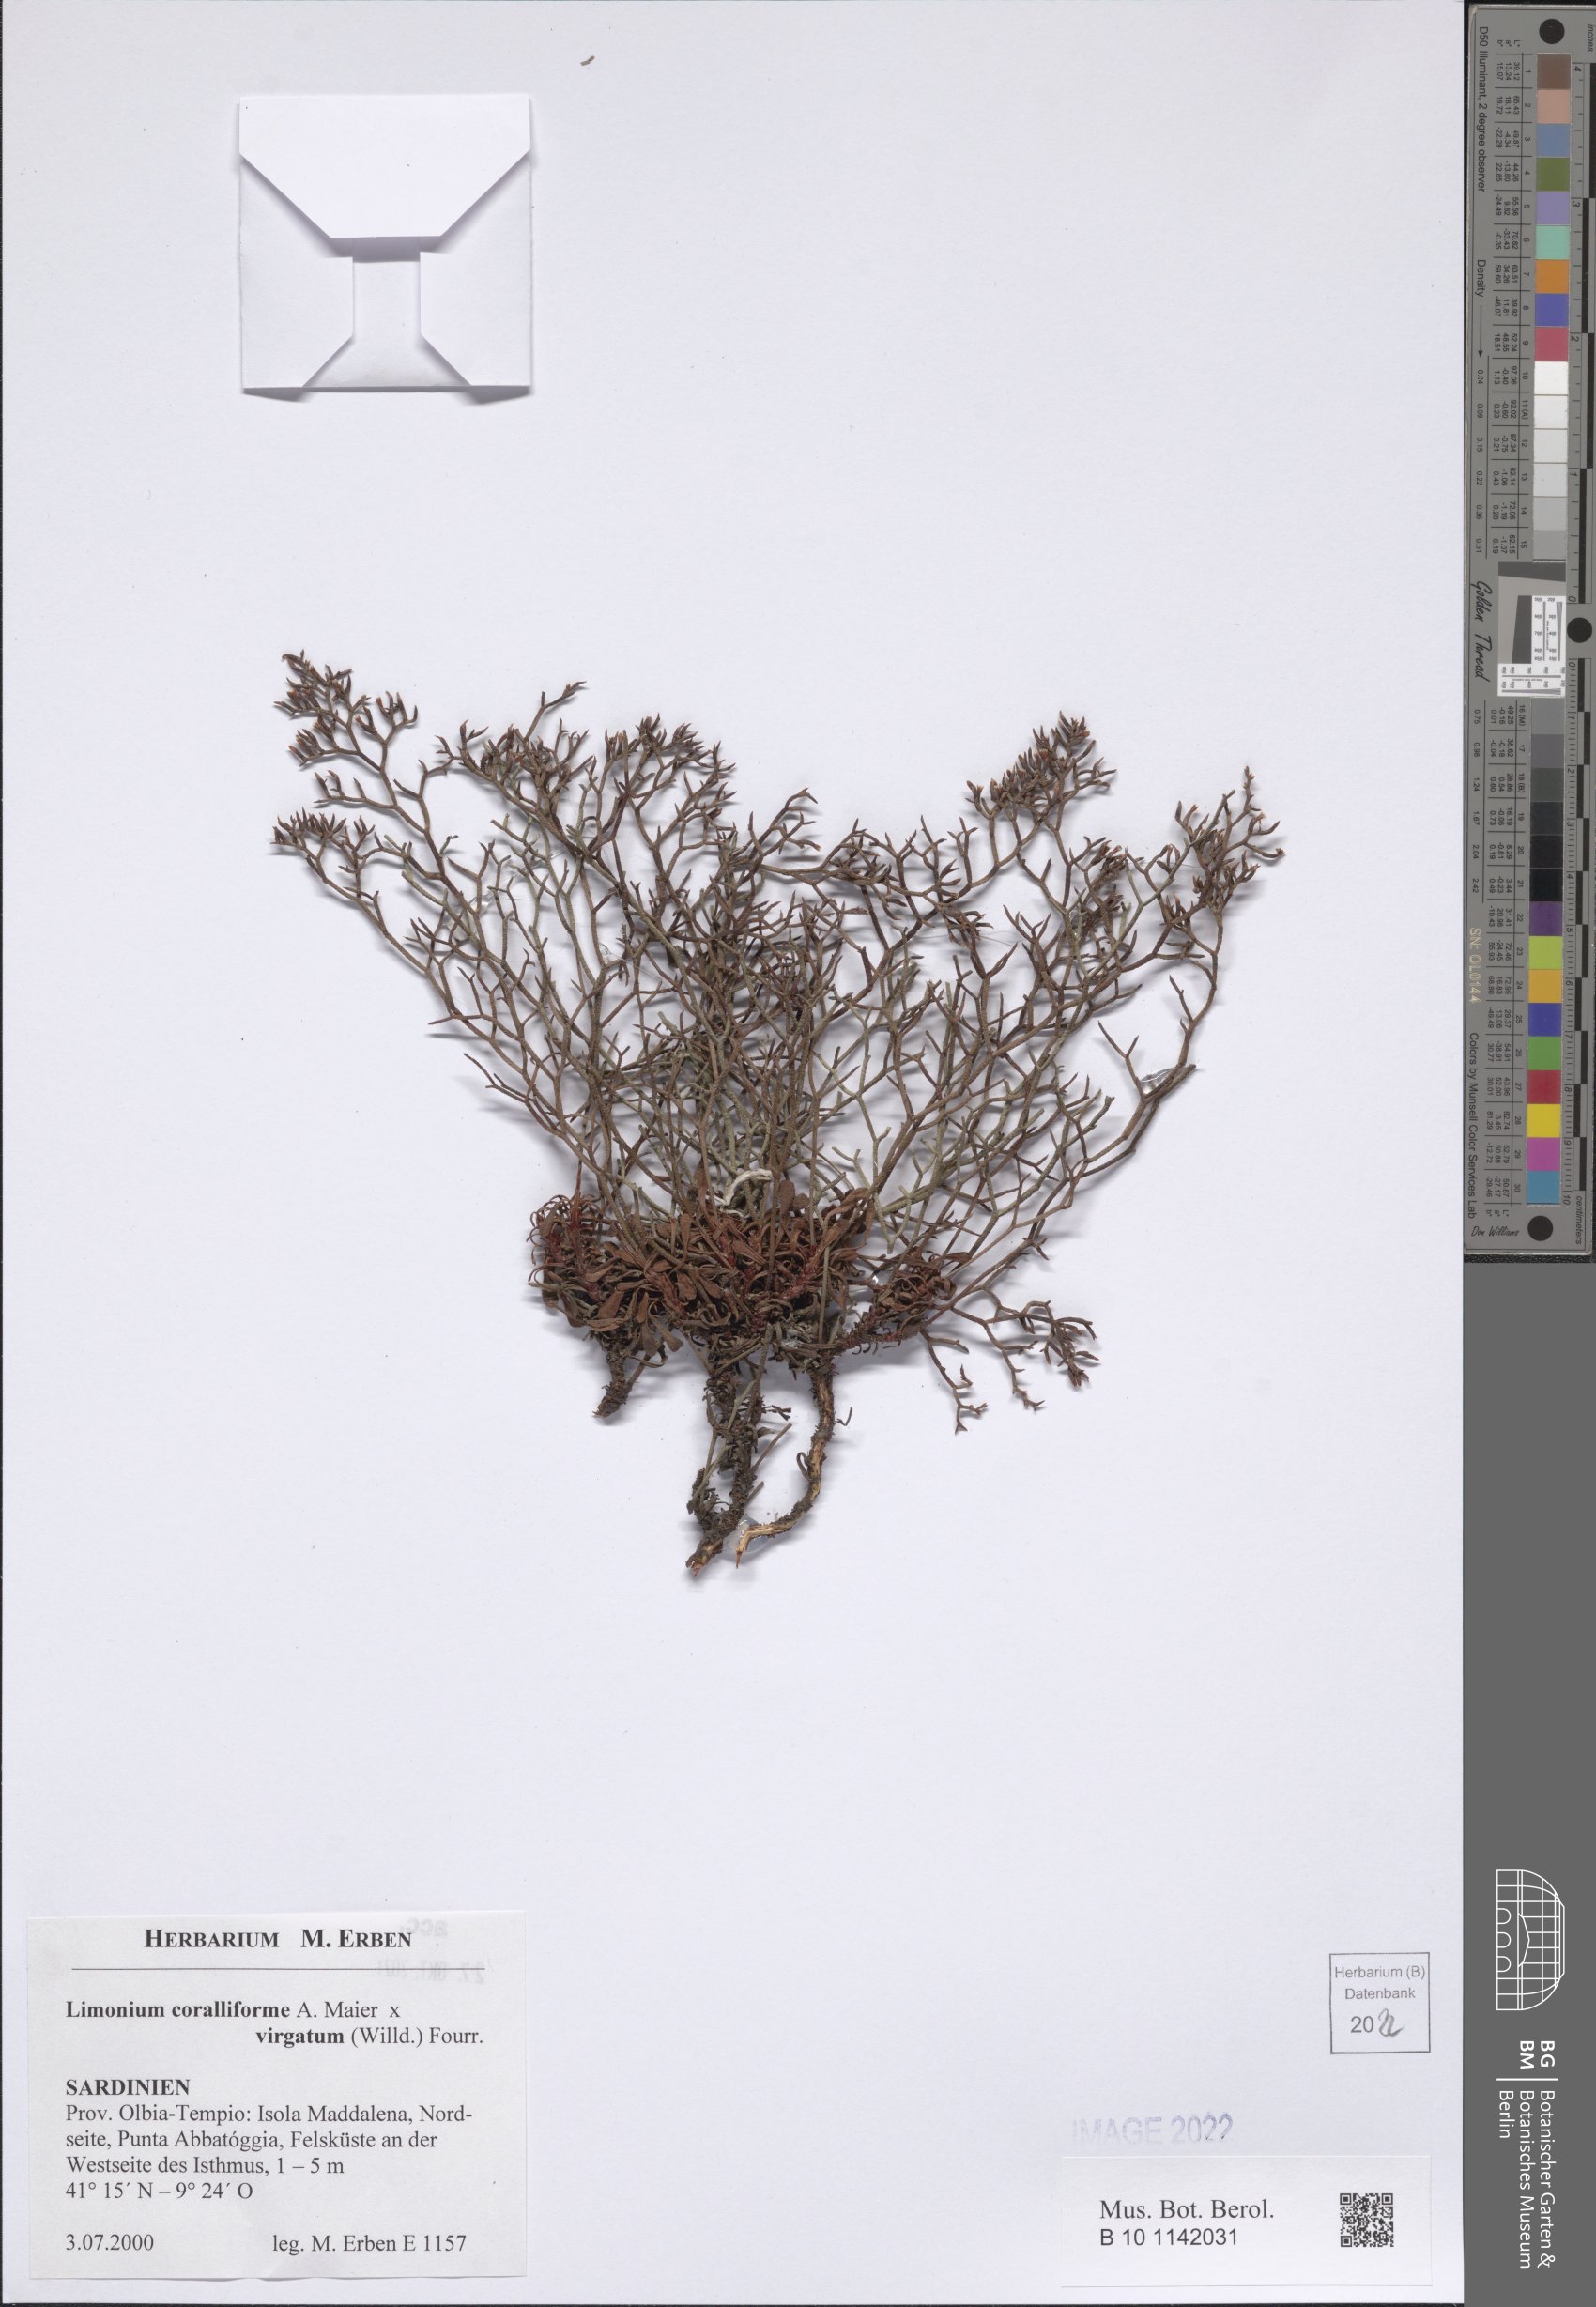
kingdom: Plantae
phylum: Tracheophyta
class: Magnoliopsida
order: Caryophyllales
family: Plumbaginaceae
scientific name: Plumbaginaceae
